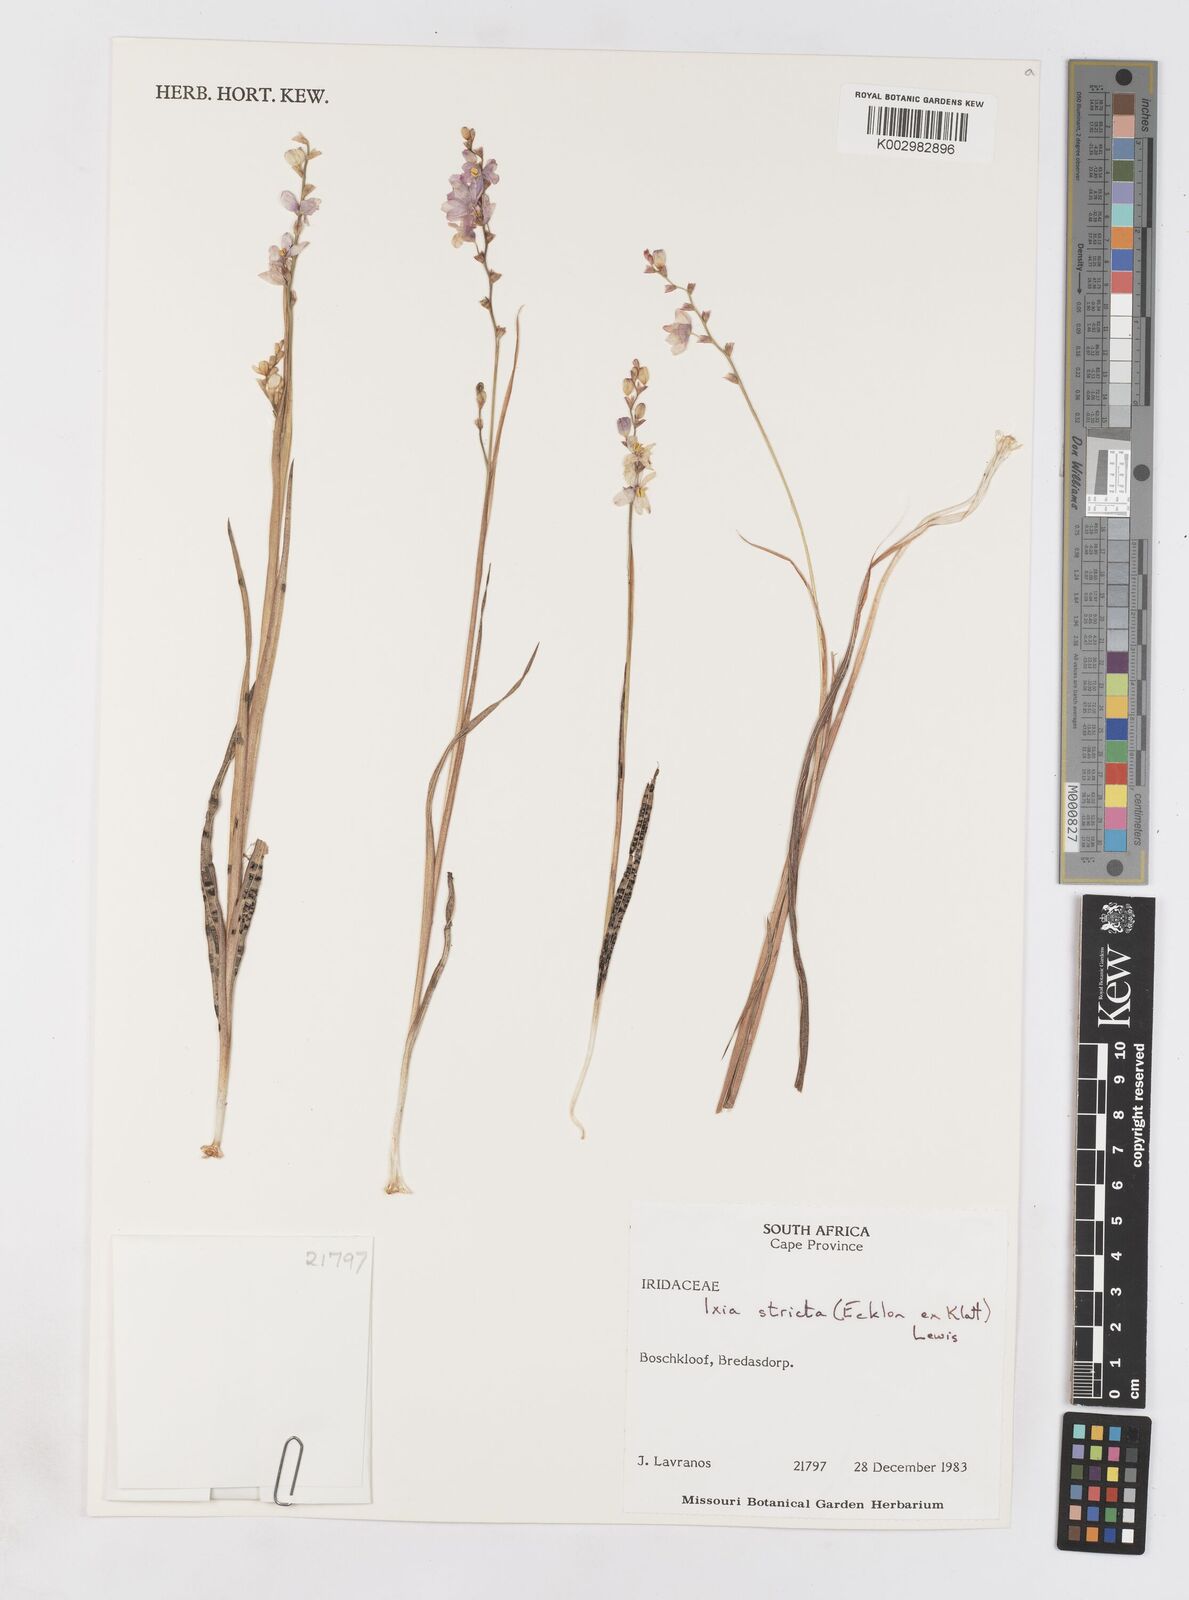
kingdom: Plantae
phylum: Tracheophyta
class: Liliopsida
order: Asparagales
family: Iridaceae
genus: Ixia
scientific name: Ixia stricta
